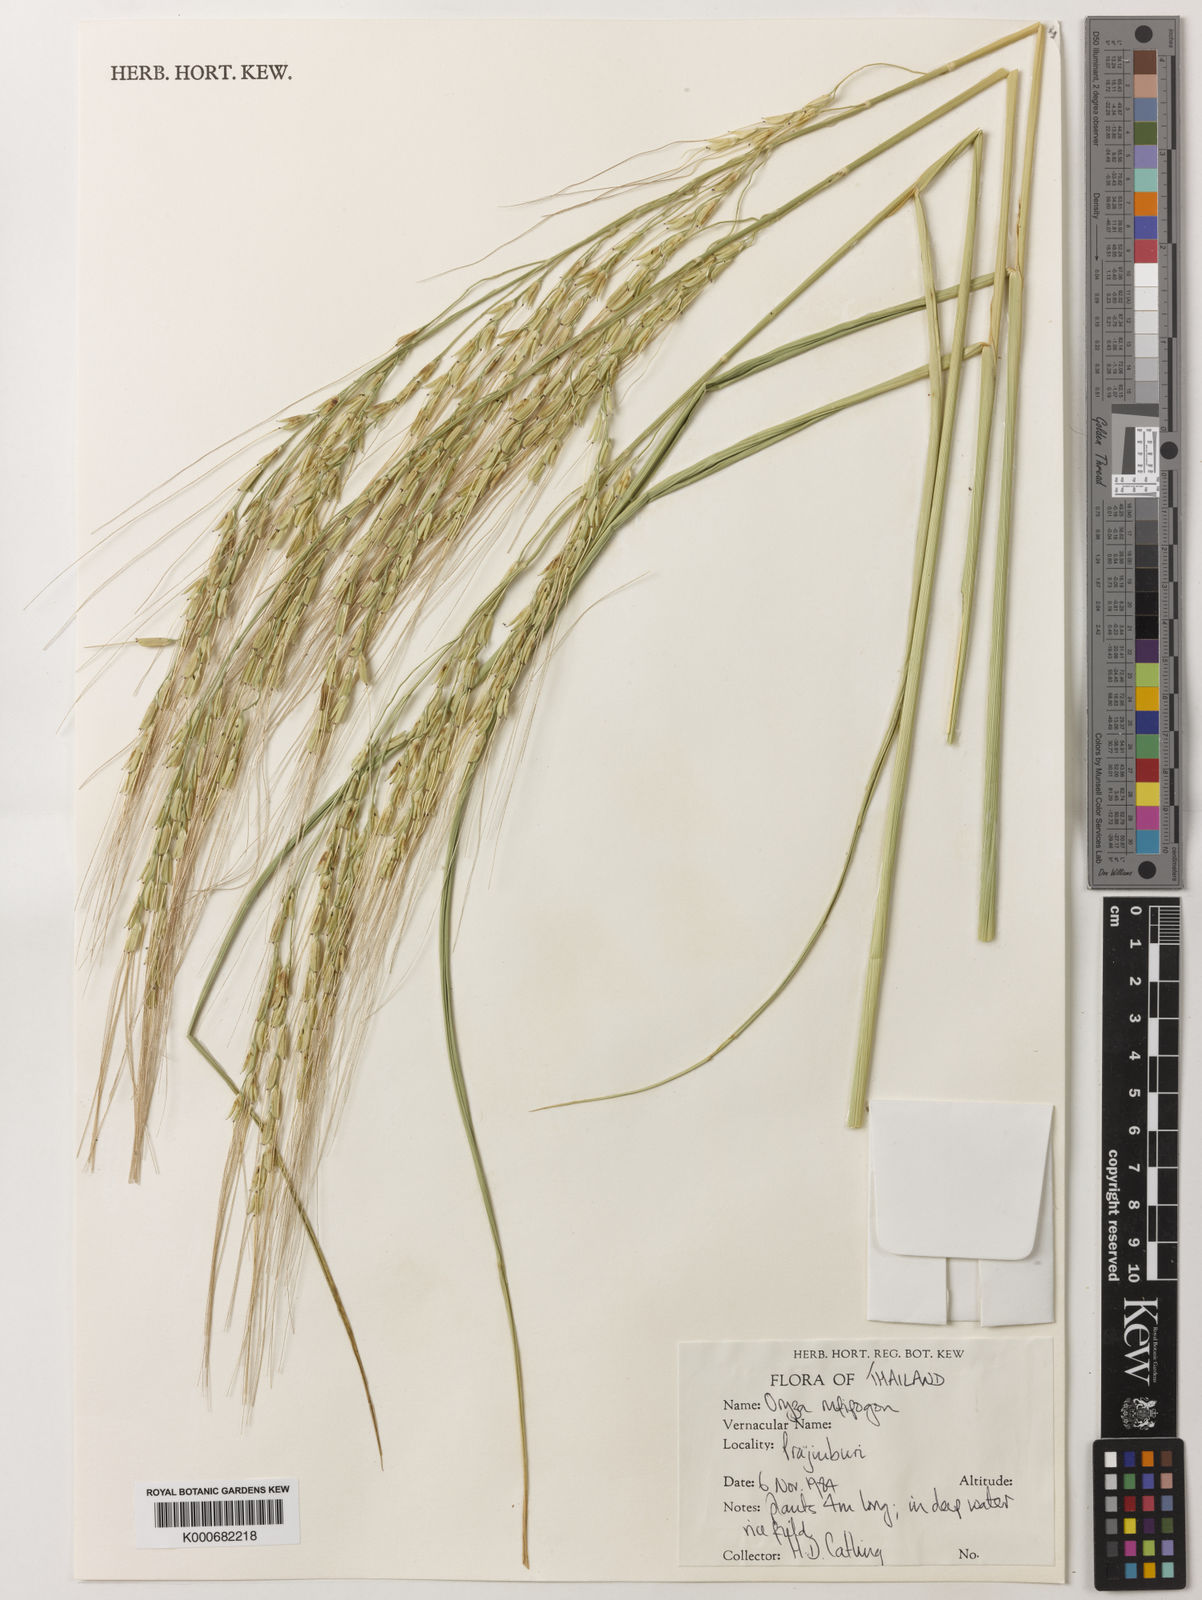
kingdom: Plantae
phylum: Tracheophyta
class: Liliopsida
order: Poales
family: Poaceae
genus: Oryza
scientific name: Oryza rufipogon
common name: Red rice
